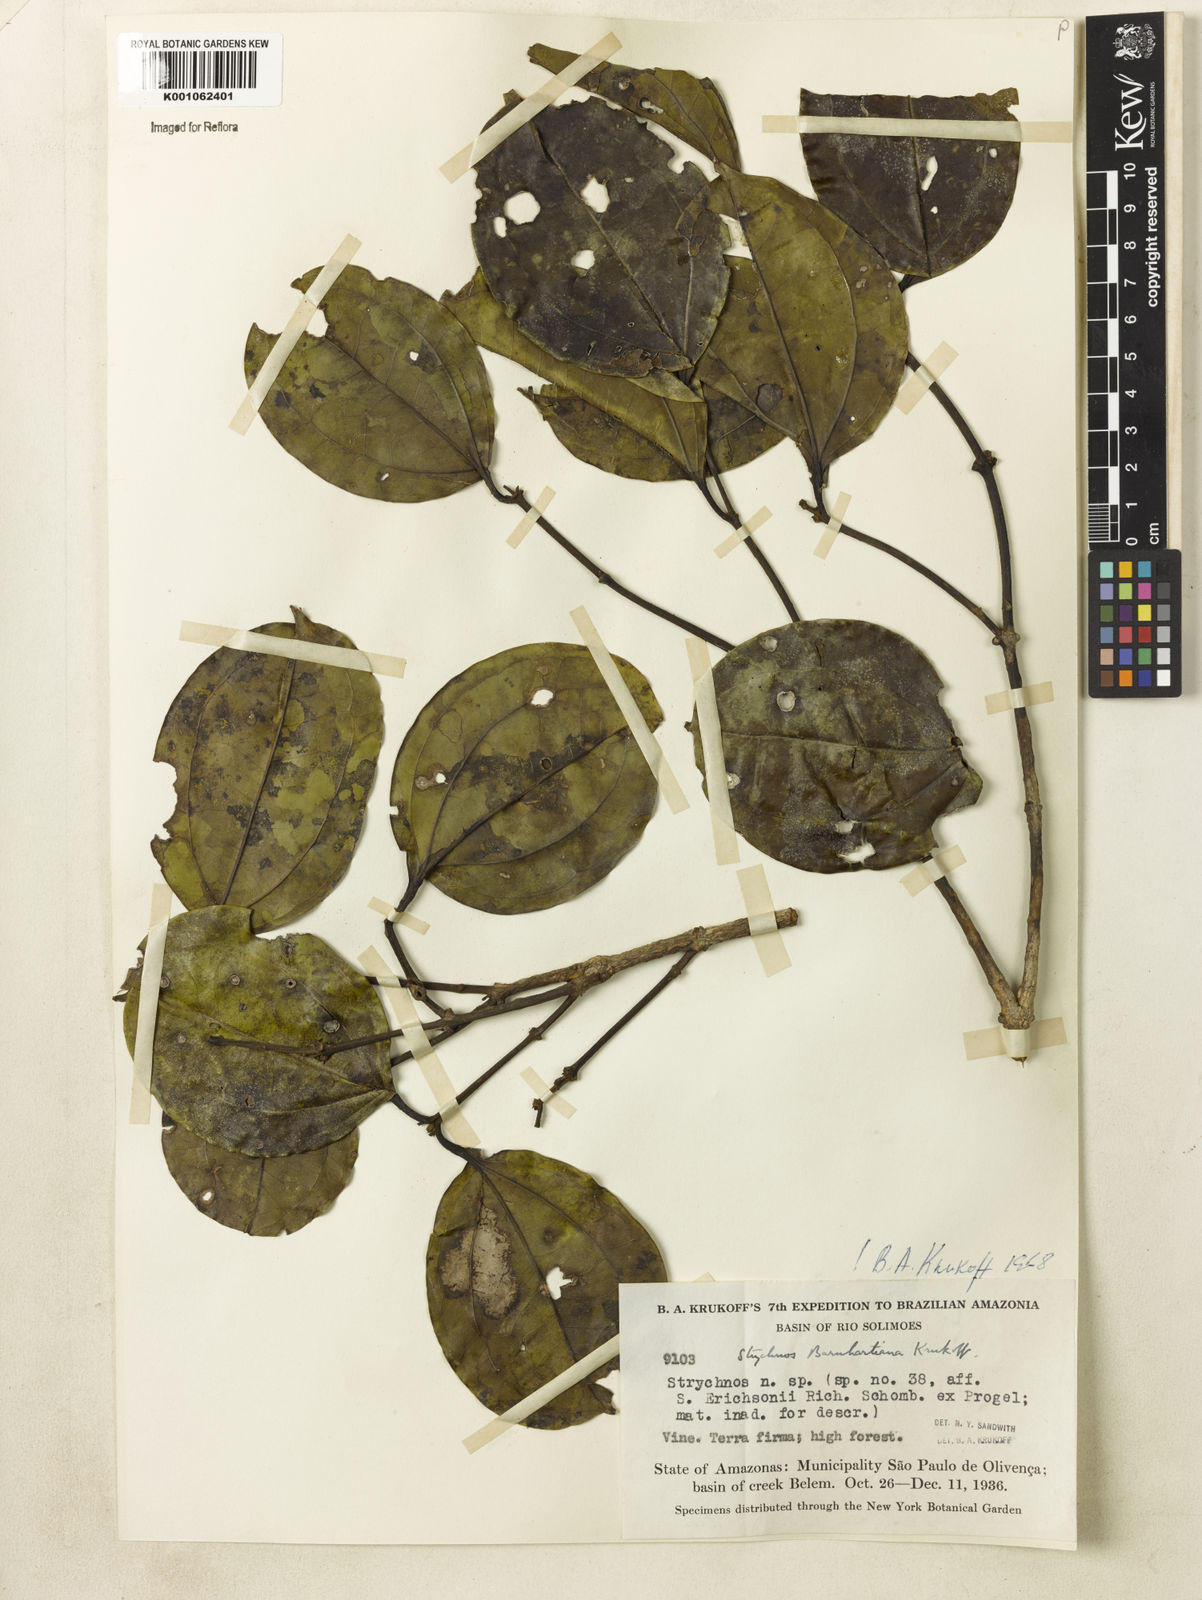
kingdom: Plantae
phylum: Tracheophyta
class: Magnoliopsida
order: Gentianales
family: Loganiaceae
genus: Strychnos
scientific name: Strychnos barnhartiana
